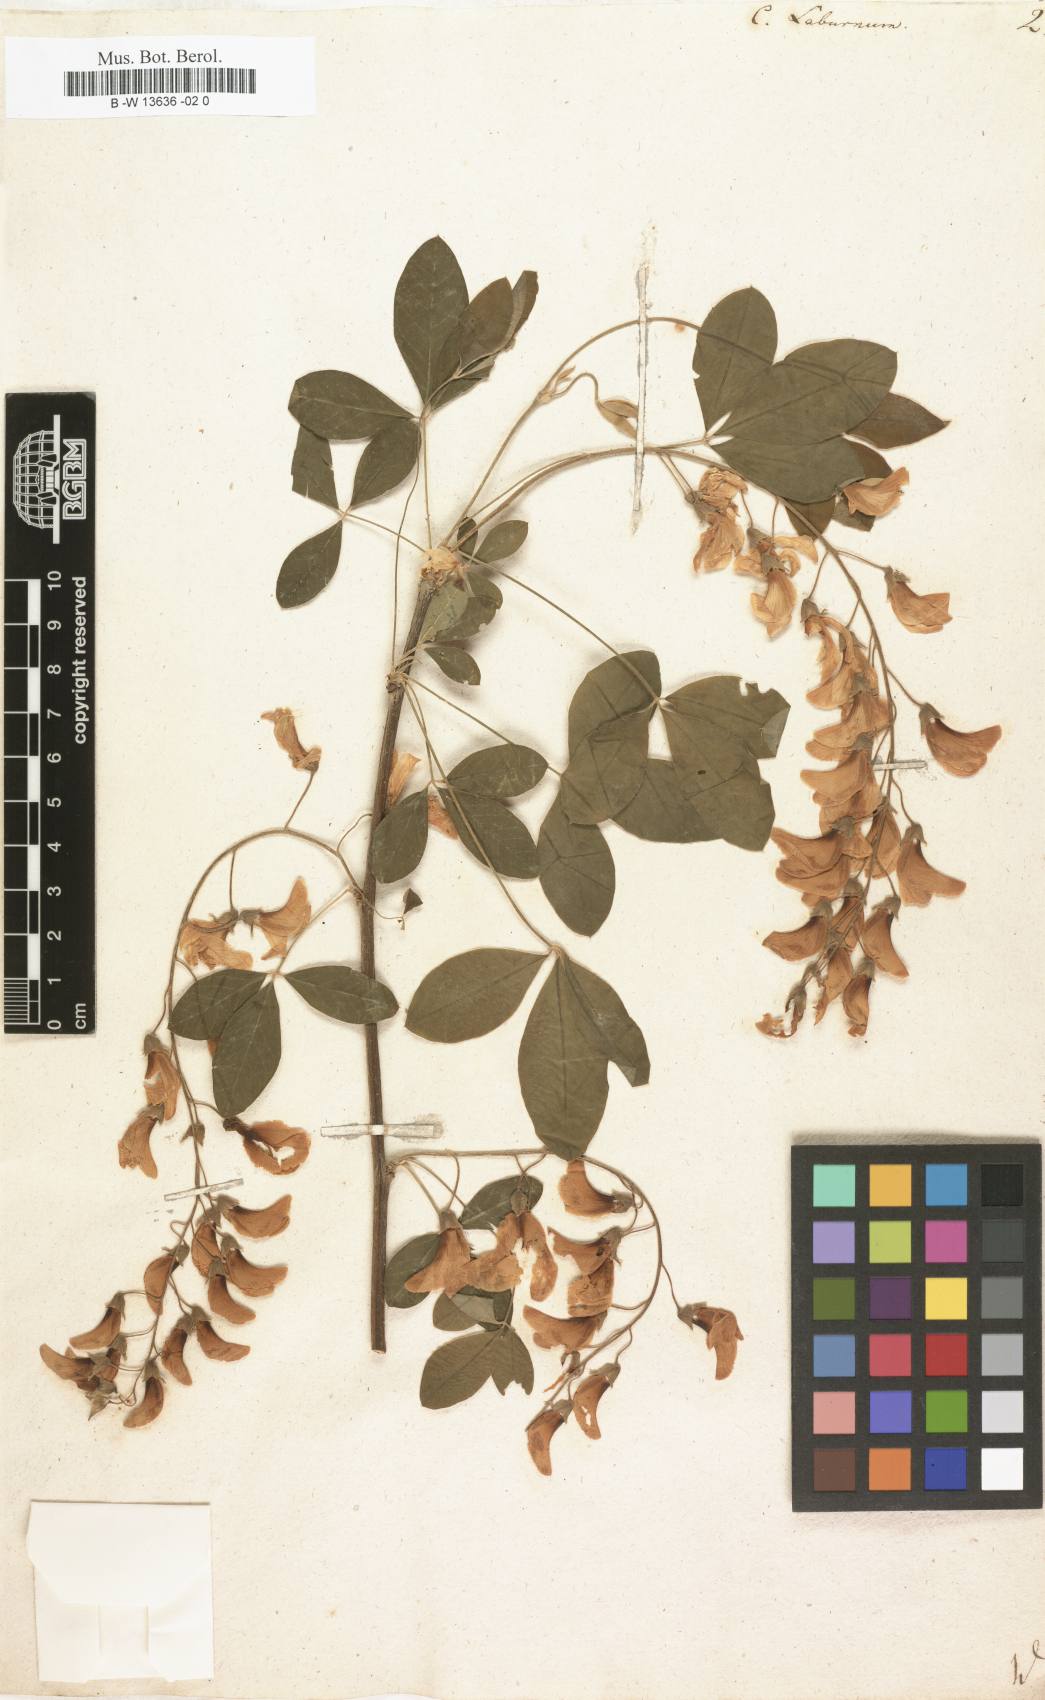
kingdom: Plantae
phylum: Tracheophyta
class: Magnoliopsida
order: Fabales
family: Fabaceae
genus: Laburnum
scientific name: Laburnum anagyroides
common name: Laburnum
